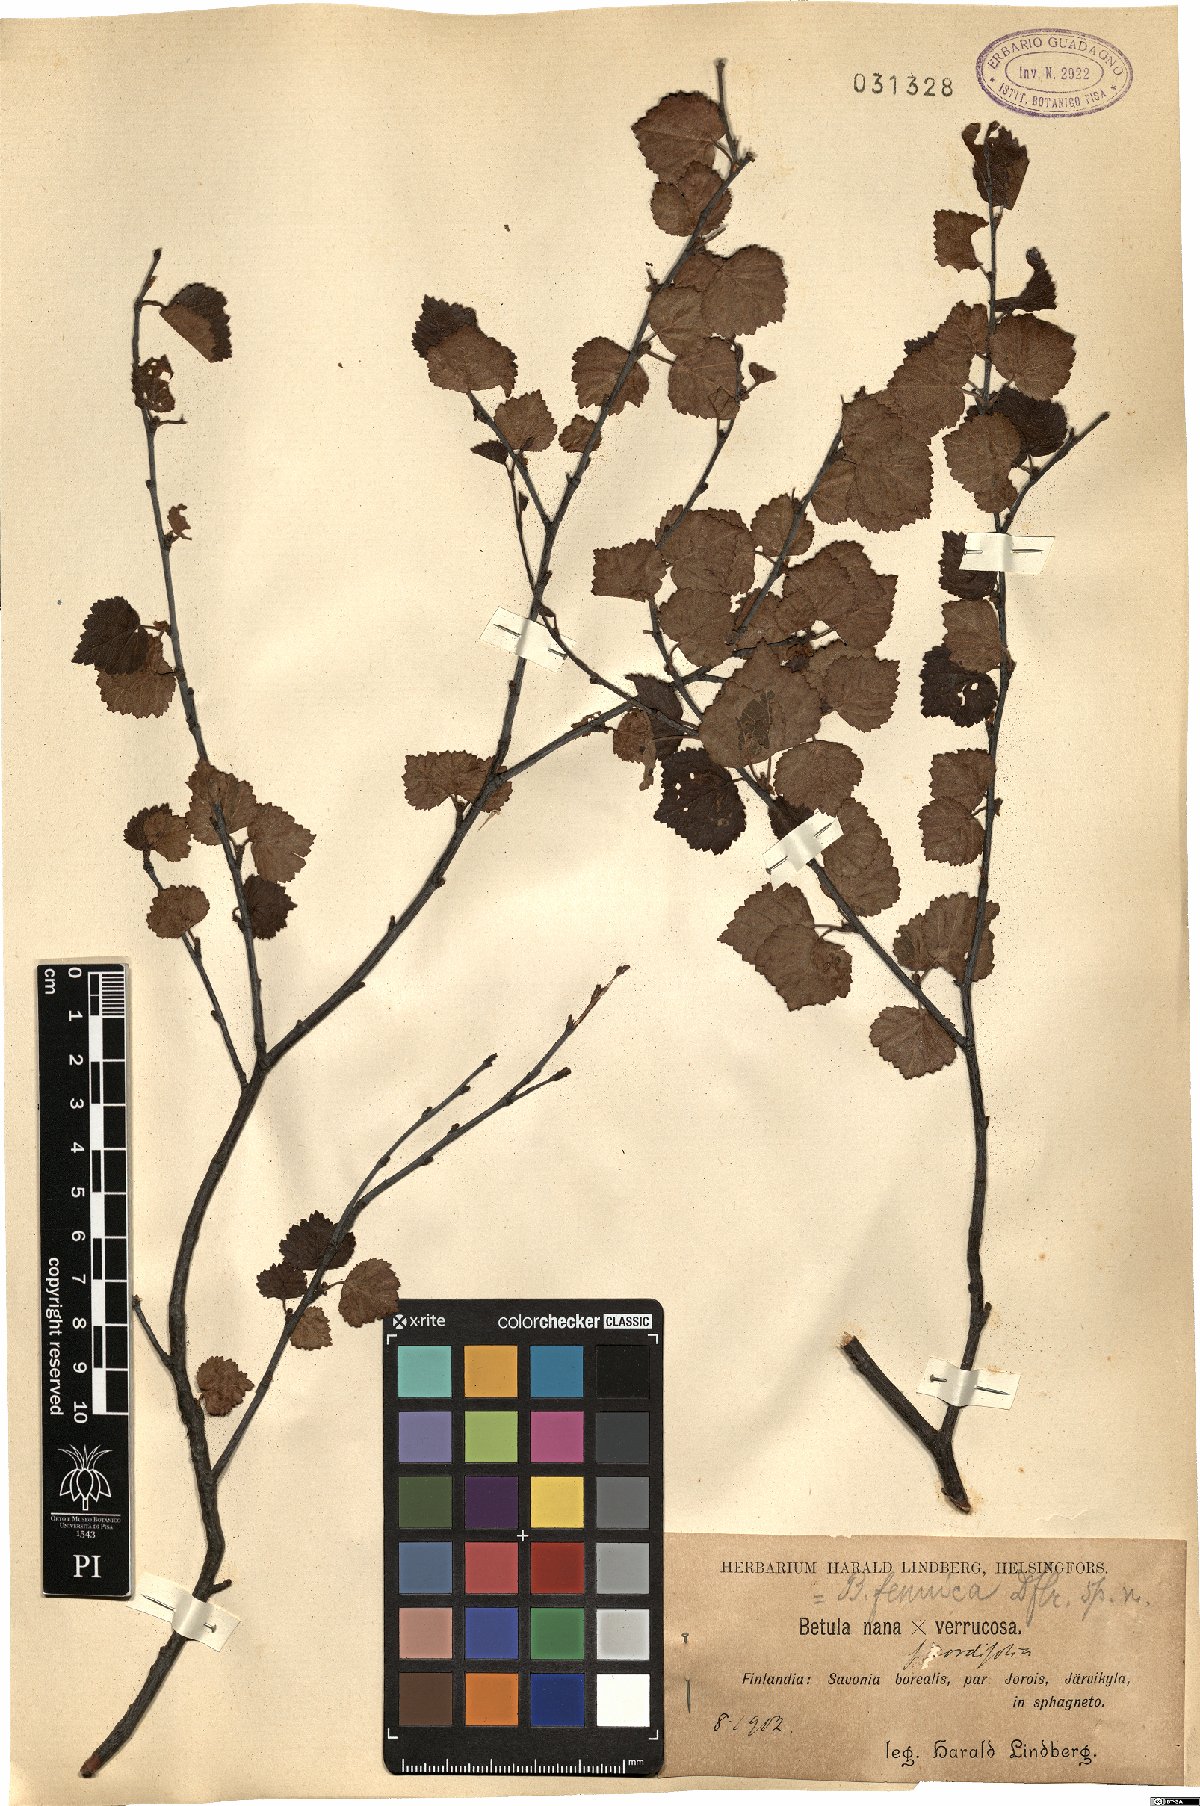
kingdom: Plantae
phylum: Tracheophyta
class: Magnoliopsida
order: Fagales
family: Betulaceae
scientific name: Betulaceae
